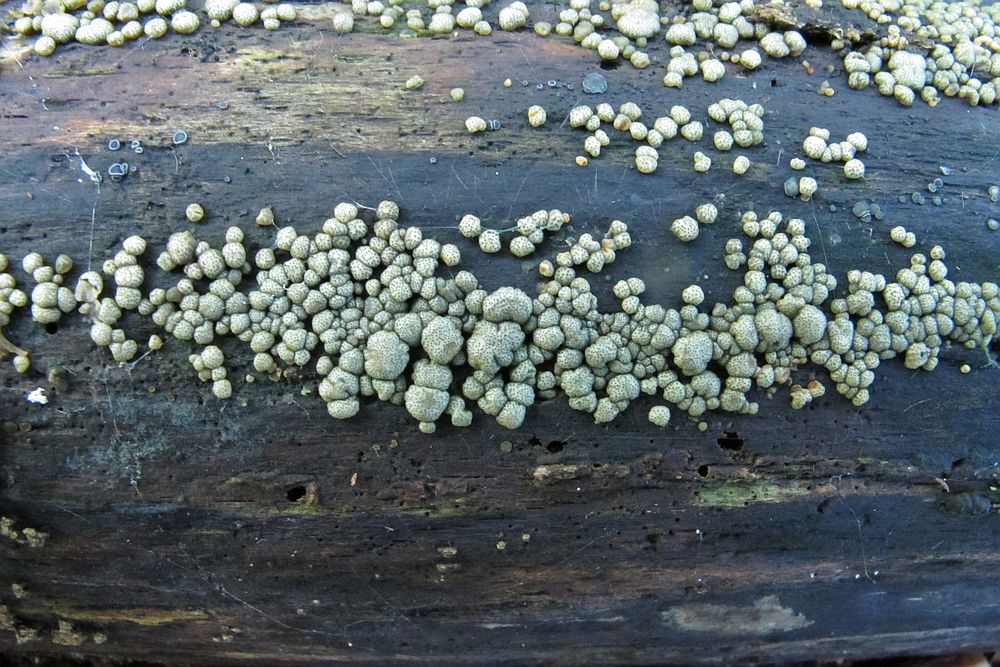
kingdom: Fungi
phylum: Ascomycota
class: Sordariomycetes
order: Hypocreales
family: Hypocreaceae
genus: Trichoderma
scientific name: Trichoderma strictipile
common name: grønprikket kødkerne
